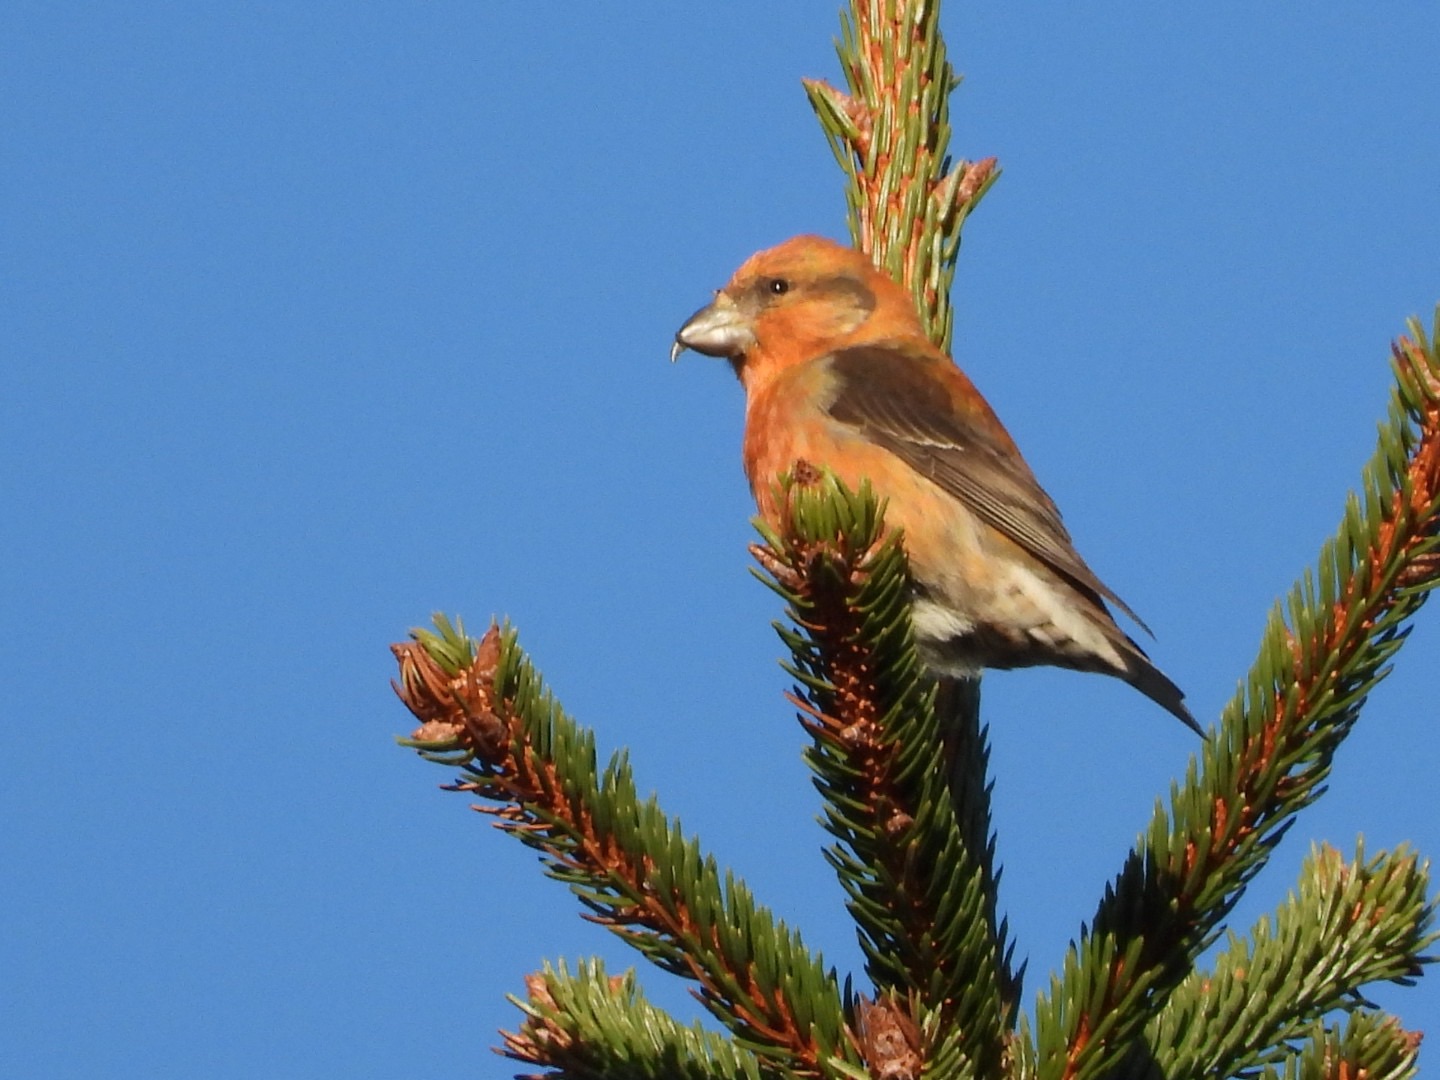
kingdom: Animalia
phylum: Chordata
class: Aves
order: Passeriformes
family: Fringillidae
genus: Loxia
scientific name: Loxia curvirostra
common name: Lille korsnæb
